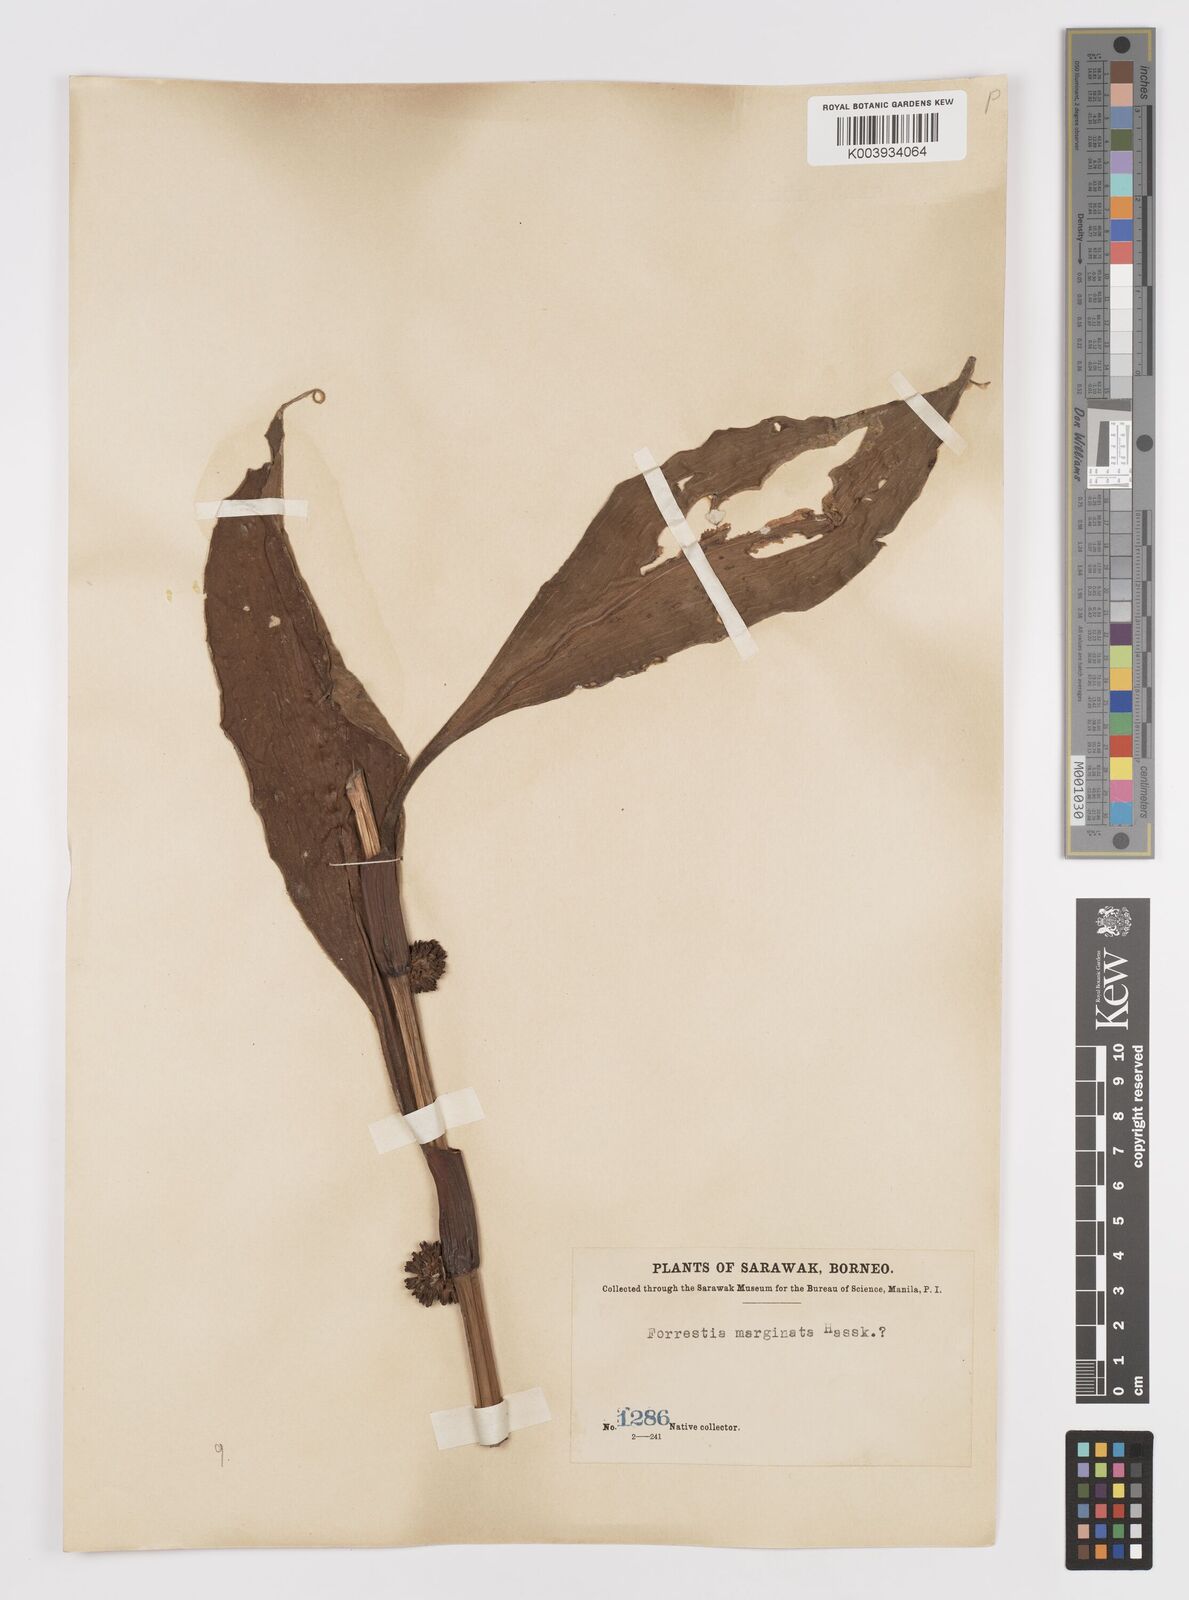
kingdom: Plantae
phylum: Tracheophyta
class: Liliopsida
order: Commelinales
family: Commelinaceae
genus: Amischotolype
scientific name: Amischotolype mollissima
